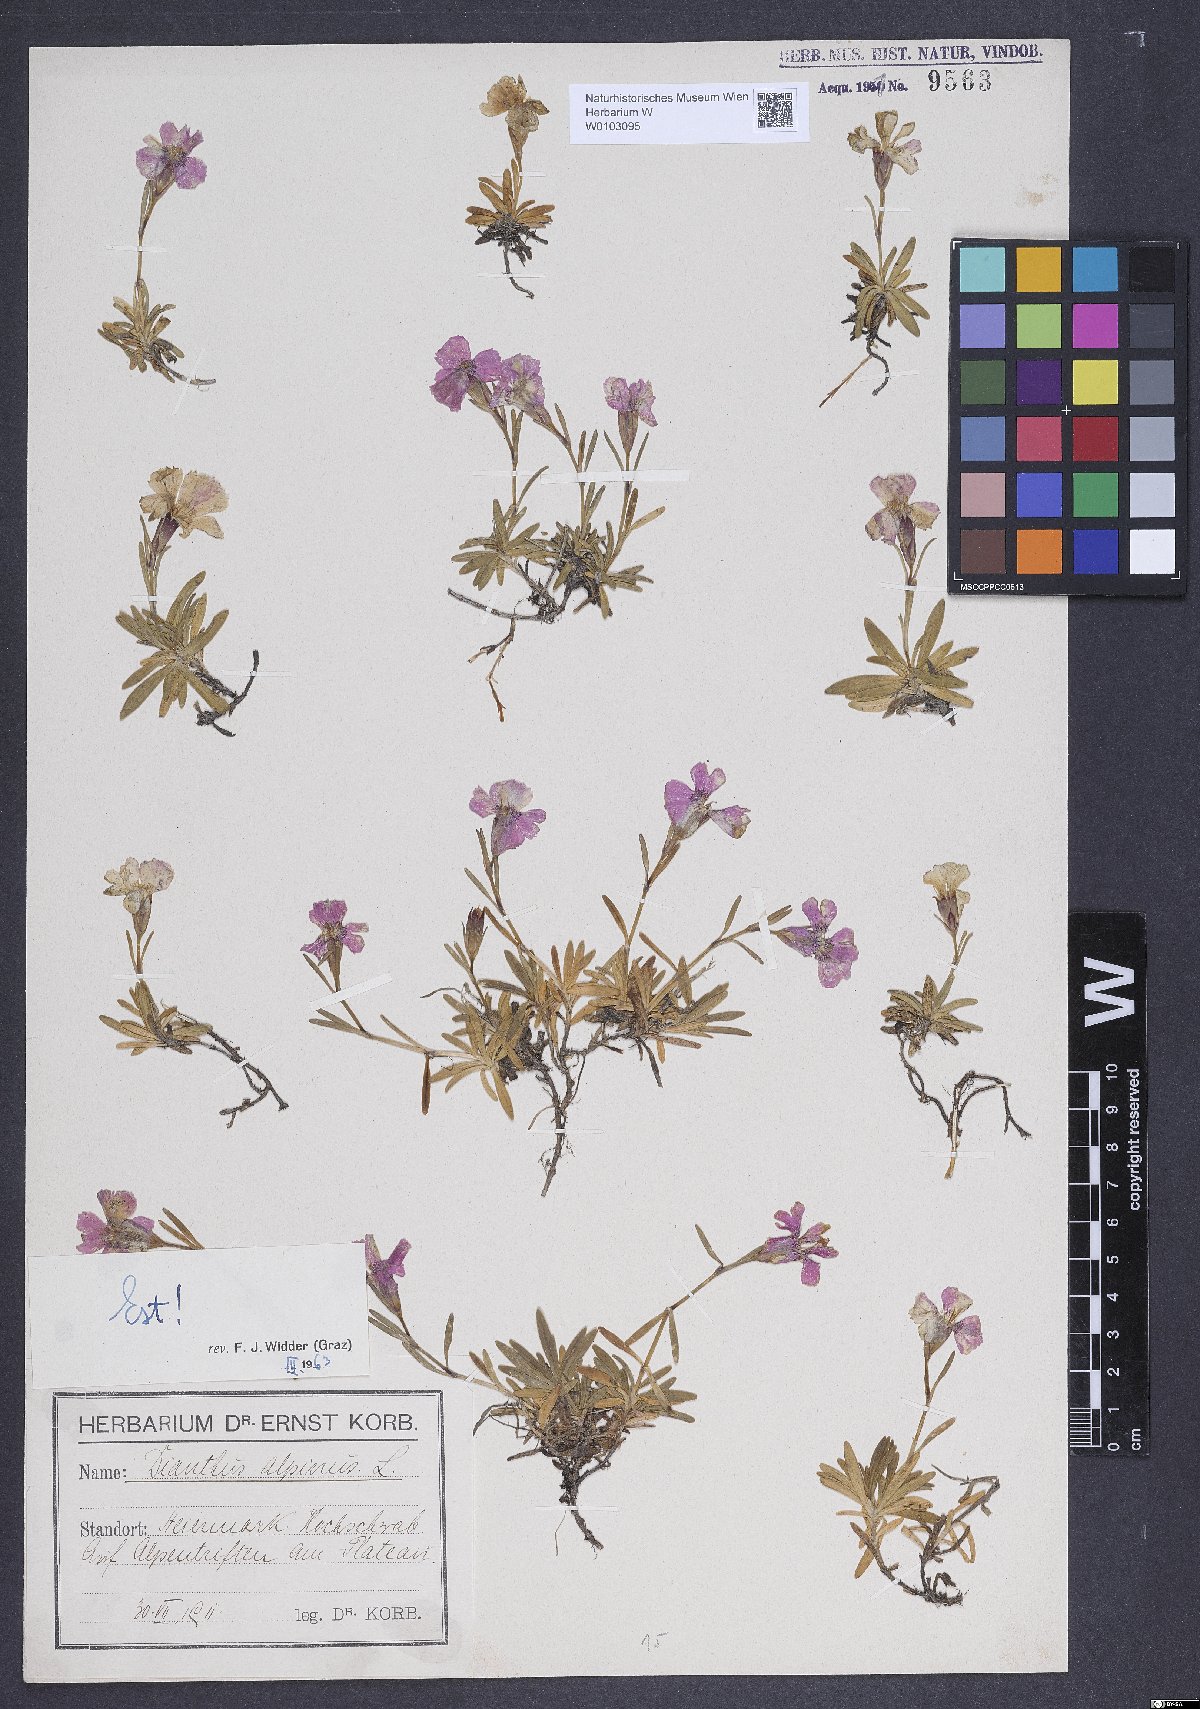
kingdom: Plantae
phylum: Tracheophyta
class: Magnoliopsida
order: Caryophyllales
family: Caryophyllaceae
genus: Dianthus
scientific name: Dianthus alpinus
